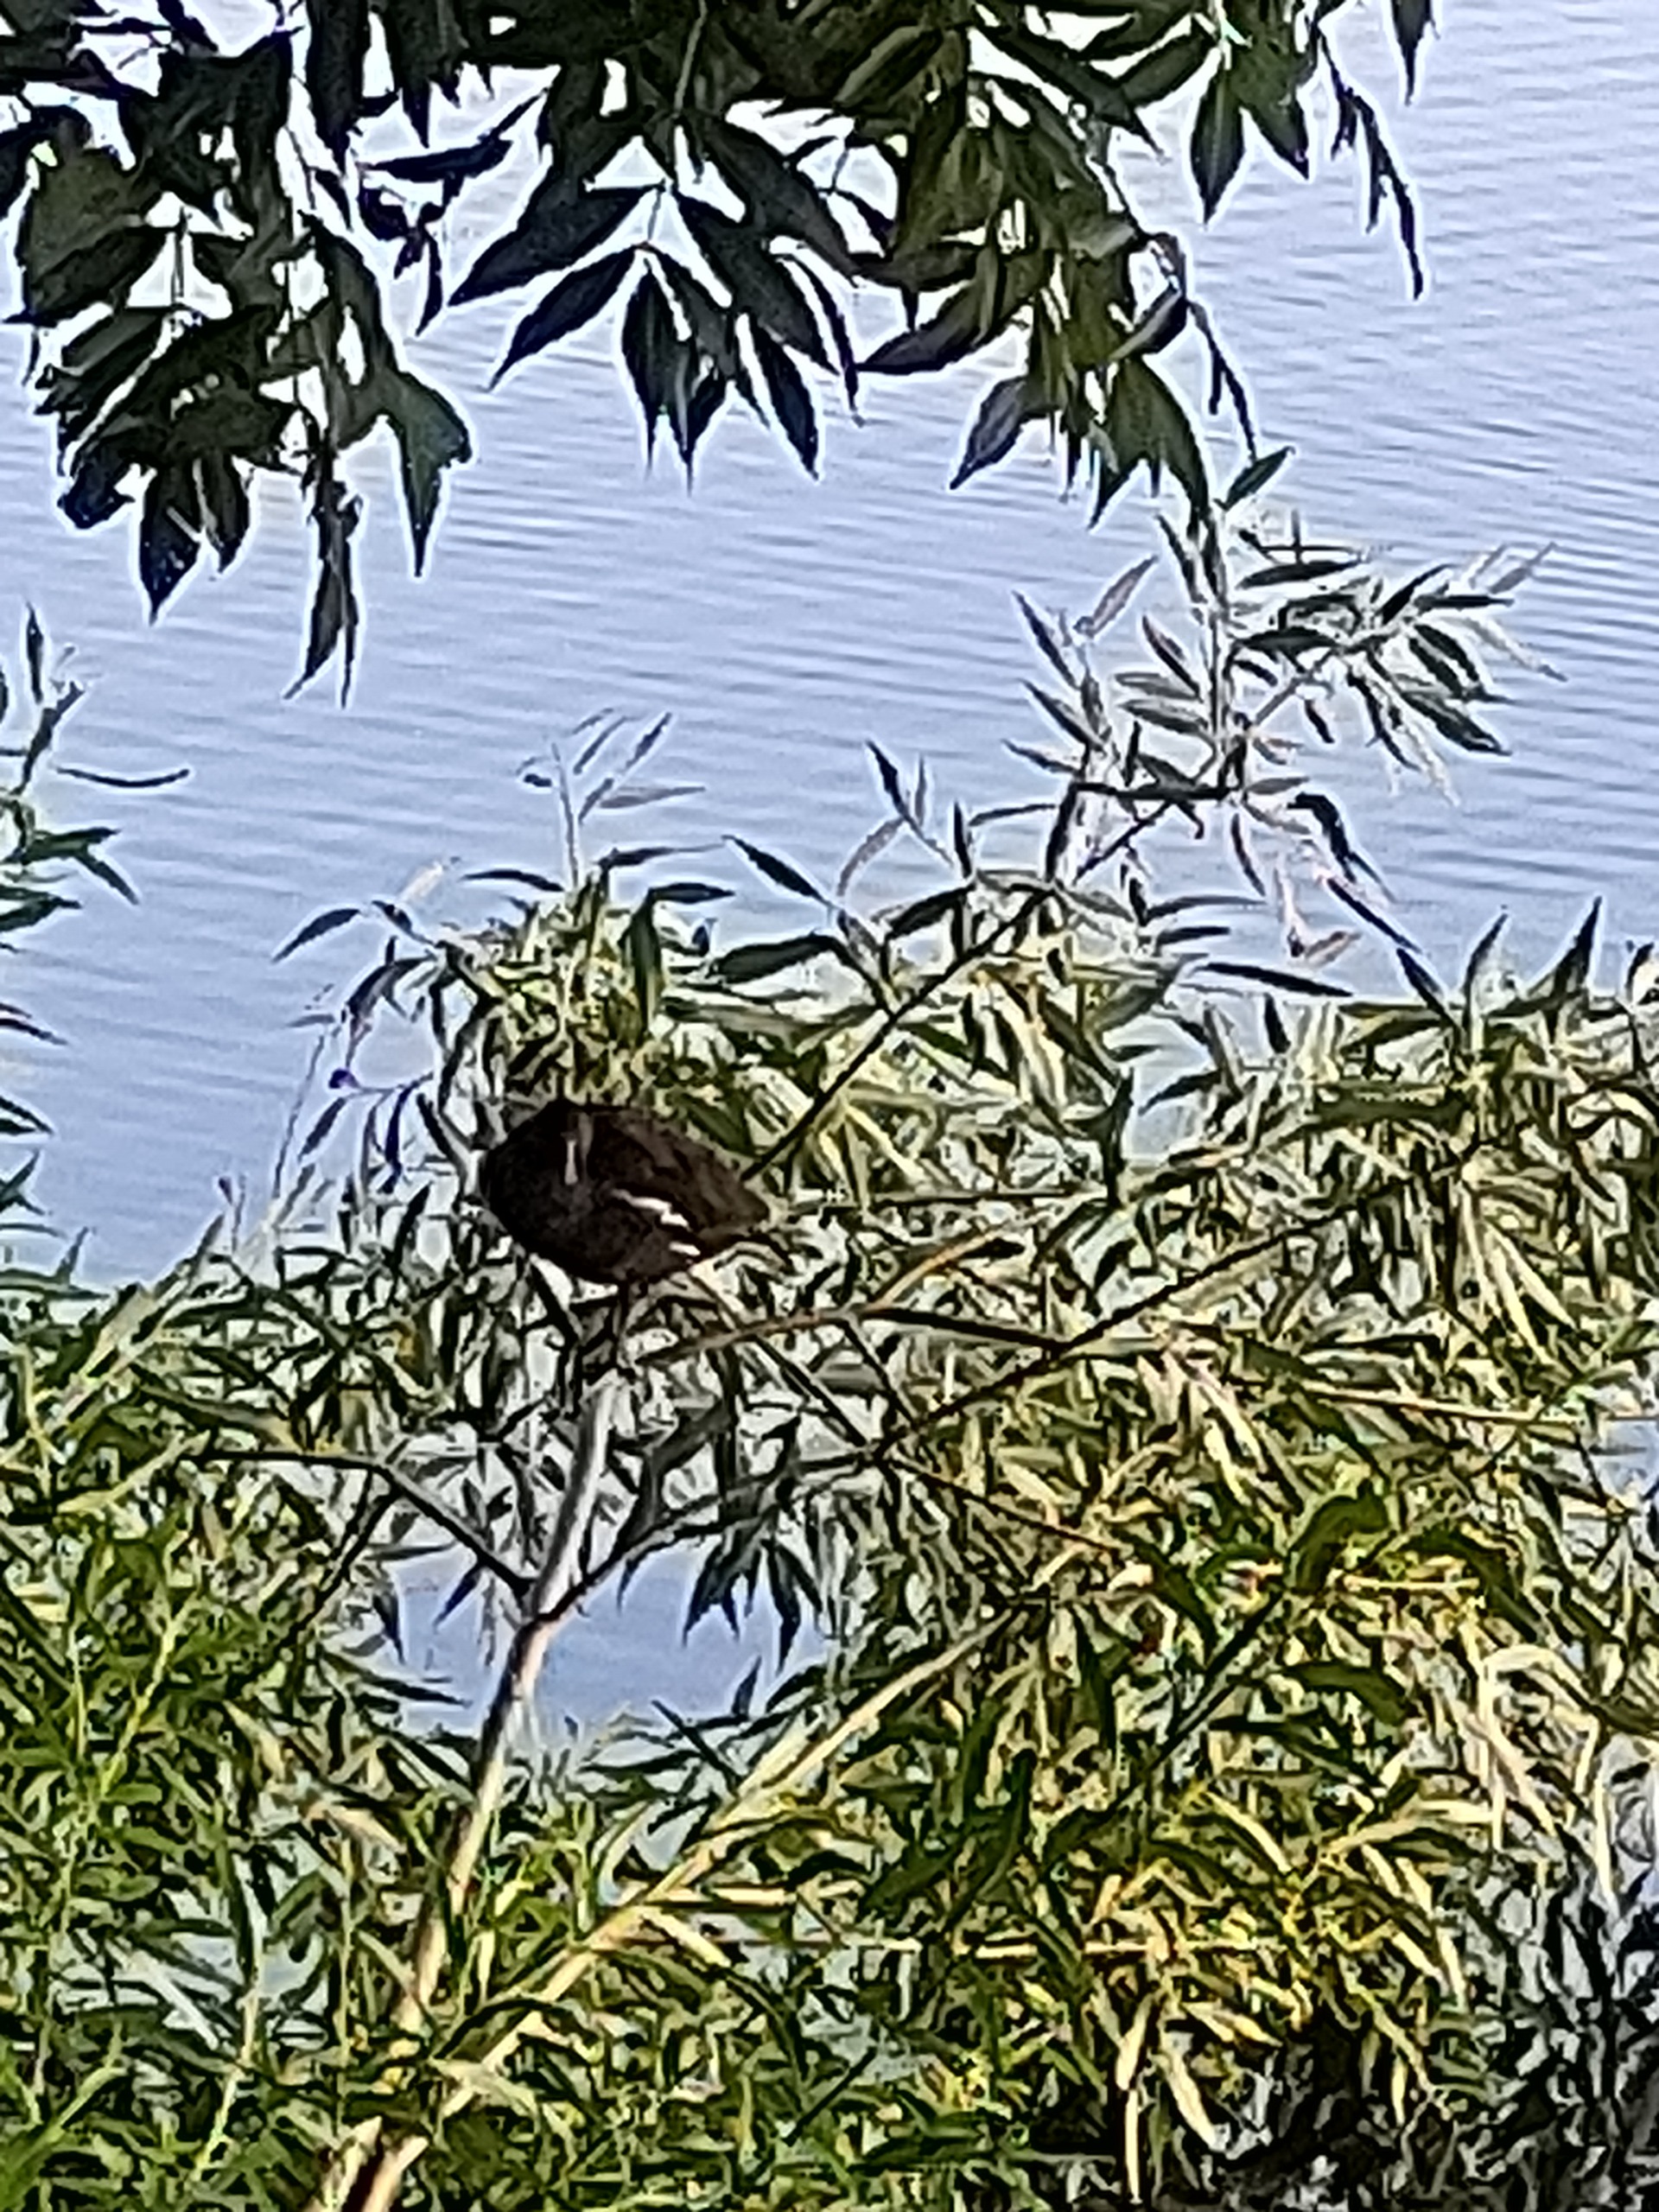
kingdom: Animalia
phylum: Chordata
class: Aves
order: Gruiformes
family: Rallidae
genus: Gallinula
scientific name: Gallinula chloropus
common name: Grønbenet rørhøne
